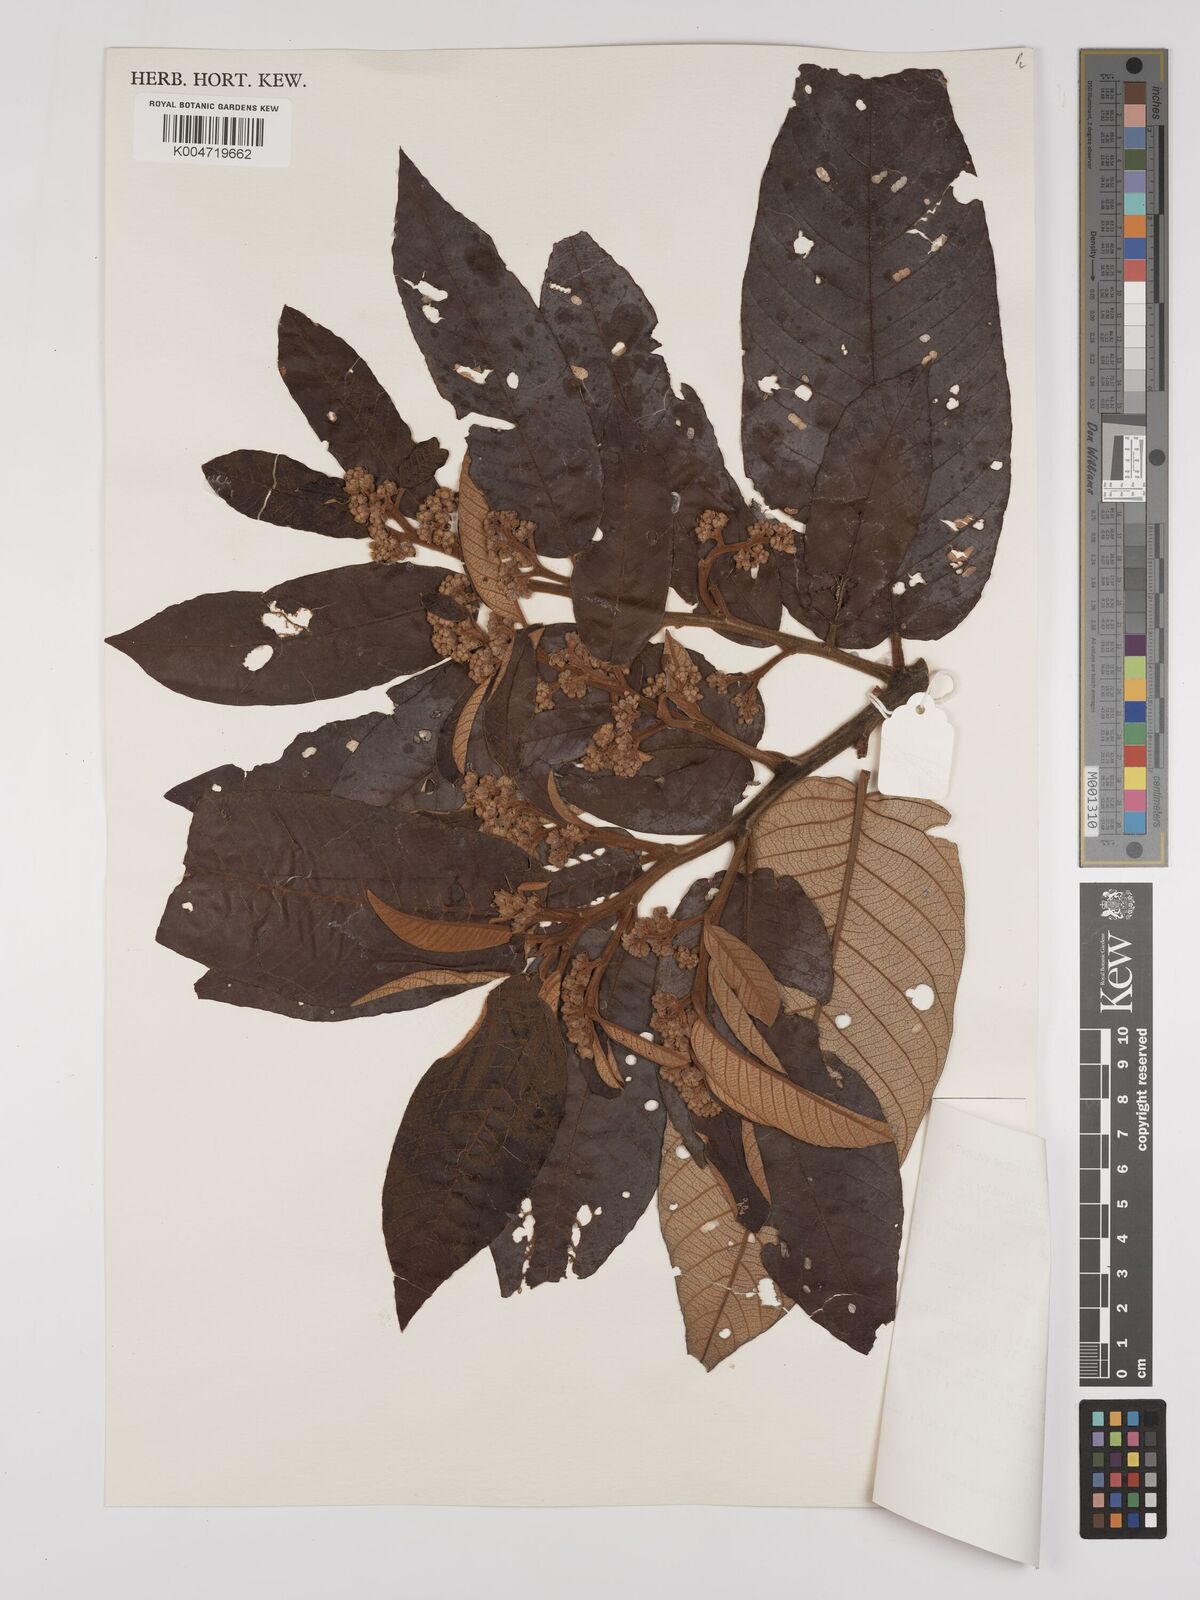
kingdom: Plantae
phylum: Tracheophyta
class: Magnoliopsida
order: Rosales
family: Rhamnaceae
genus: Alphitonia
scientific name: Alphitonia
